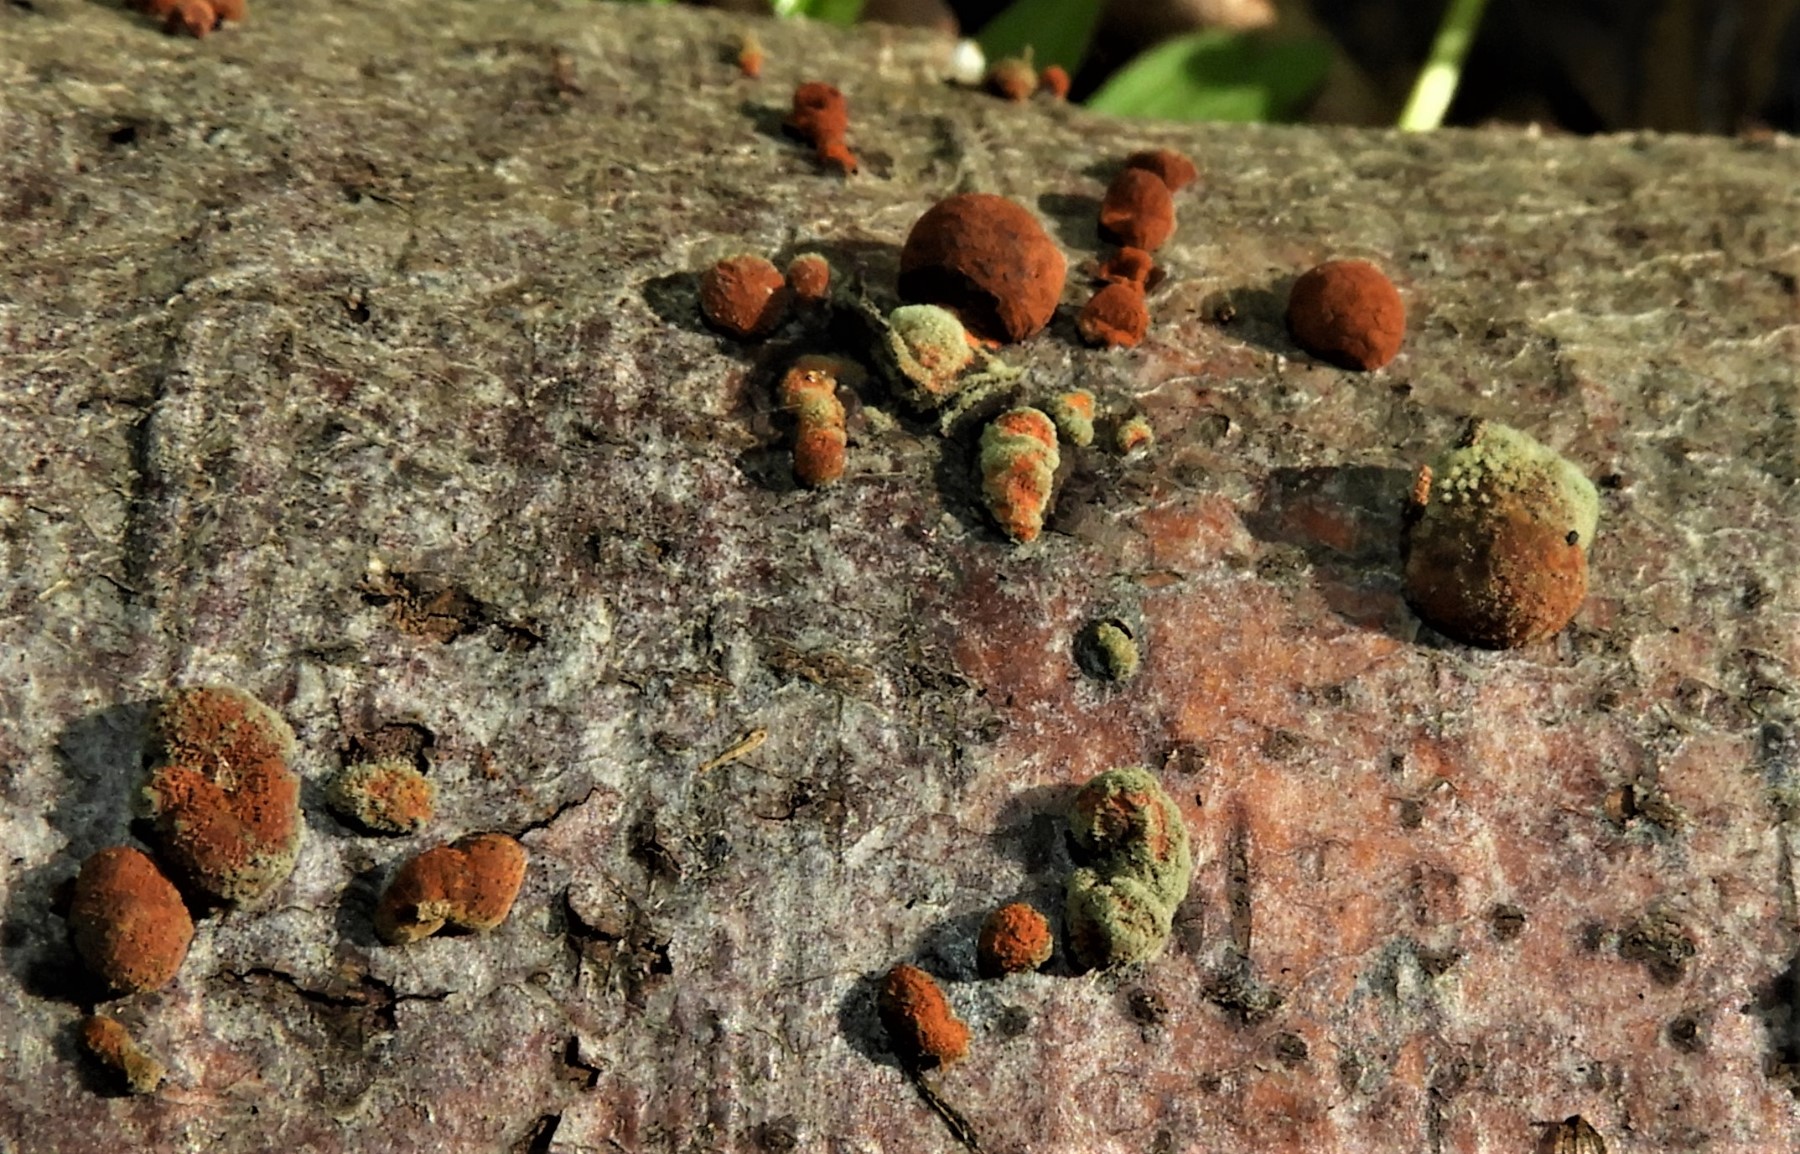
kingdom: Fungi
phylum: Ascomycota
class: Sordariomycetes
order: Xylariales
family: Hypoxylaceae
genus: Hypoxylon
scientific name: Hypoxylon fragiforme
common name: kuljordbær
